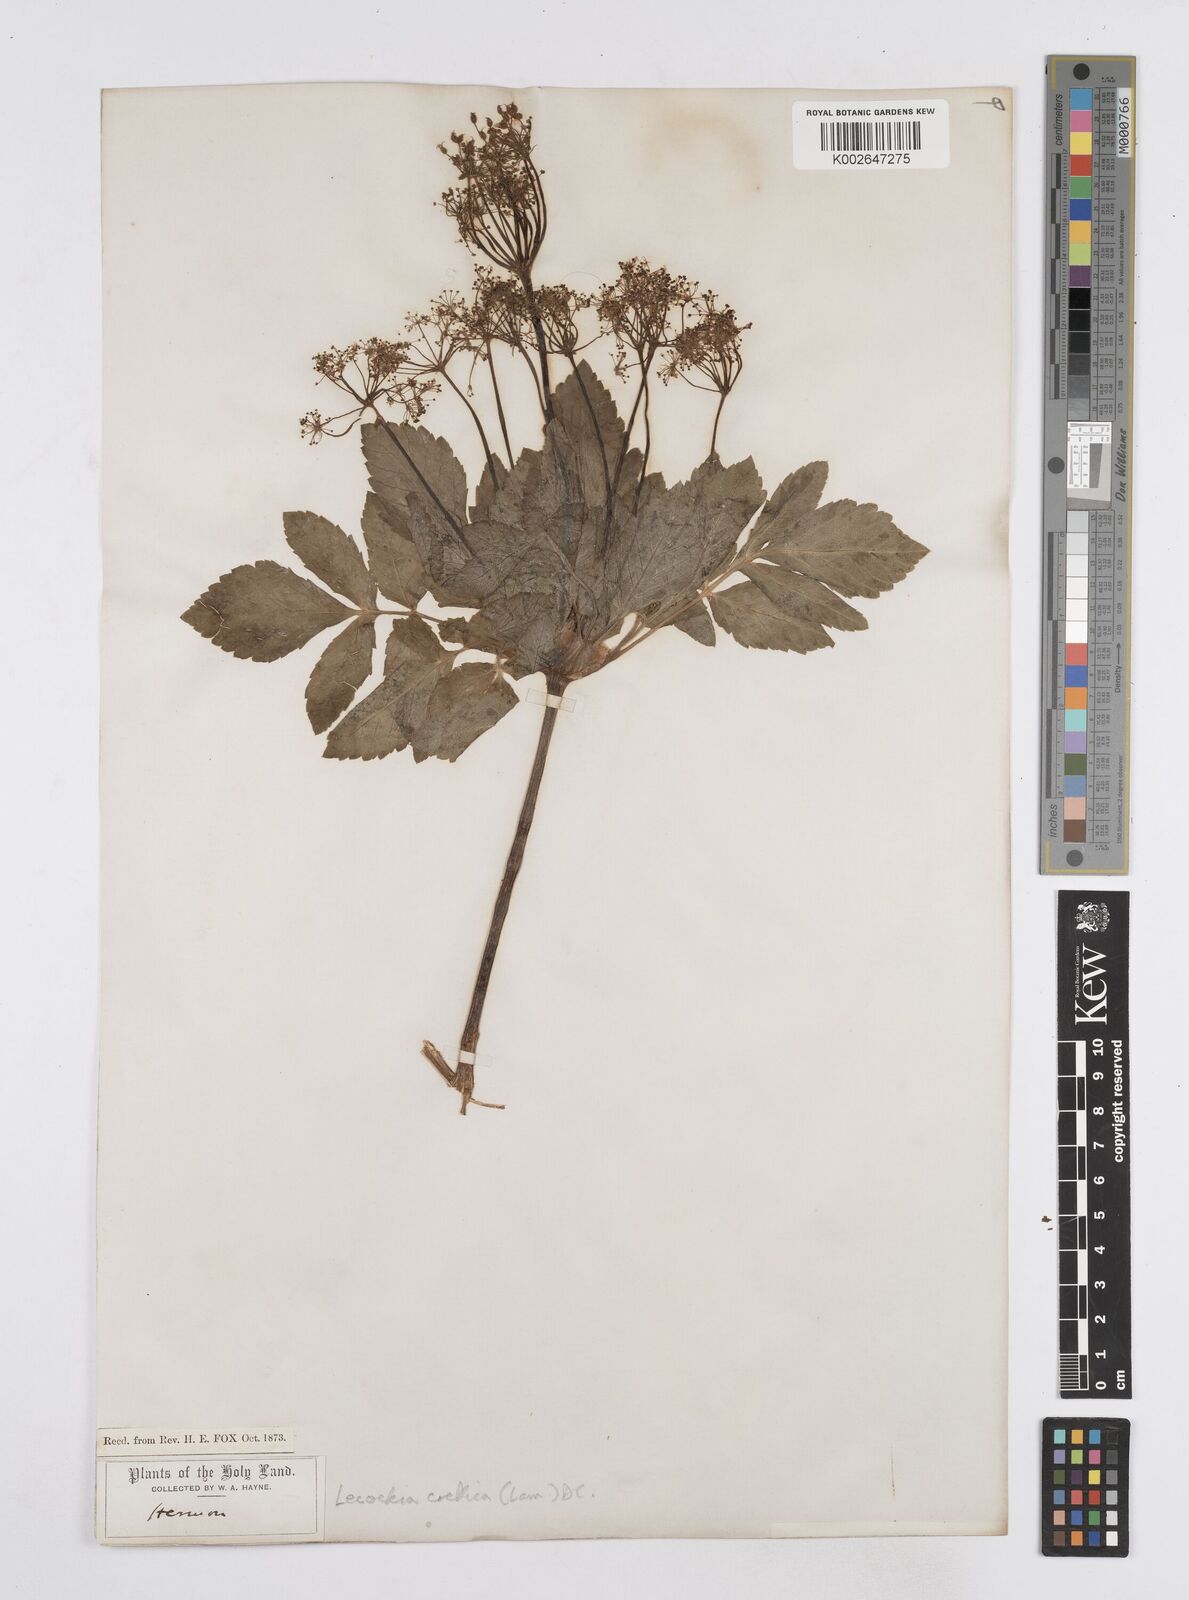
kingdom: Plantae
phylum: Tracheophyta
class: Magnoliopsida
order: Apiales
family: Apiaceae
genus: Lecokia
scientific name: Lecokia cretica
